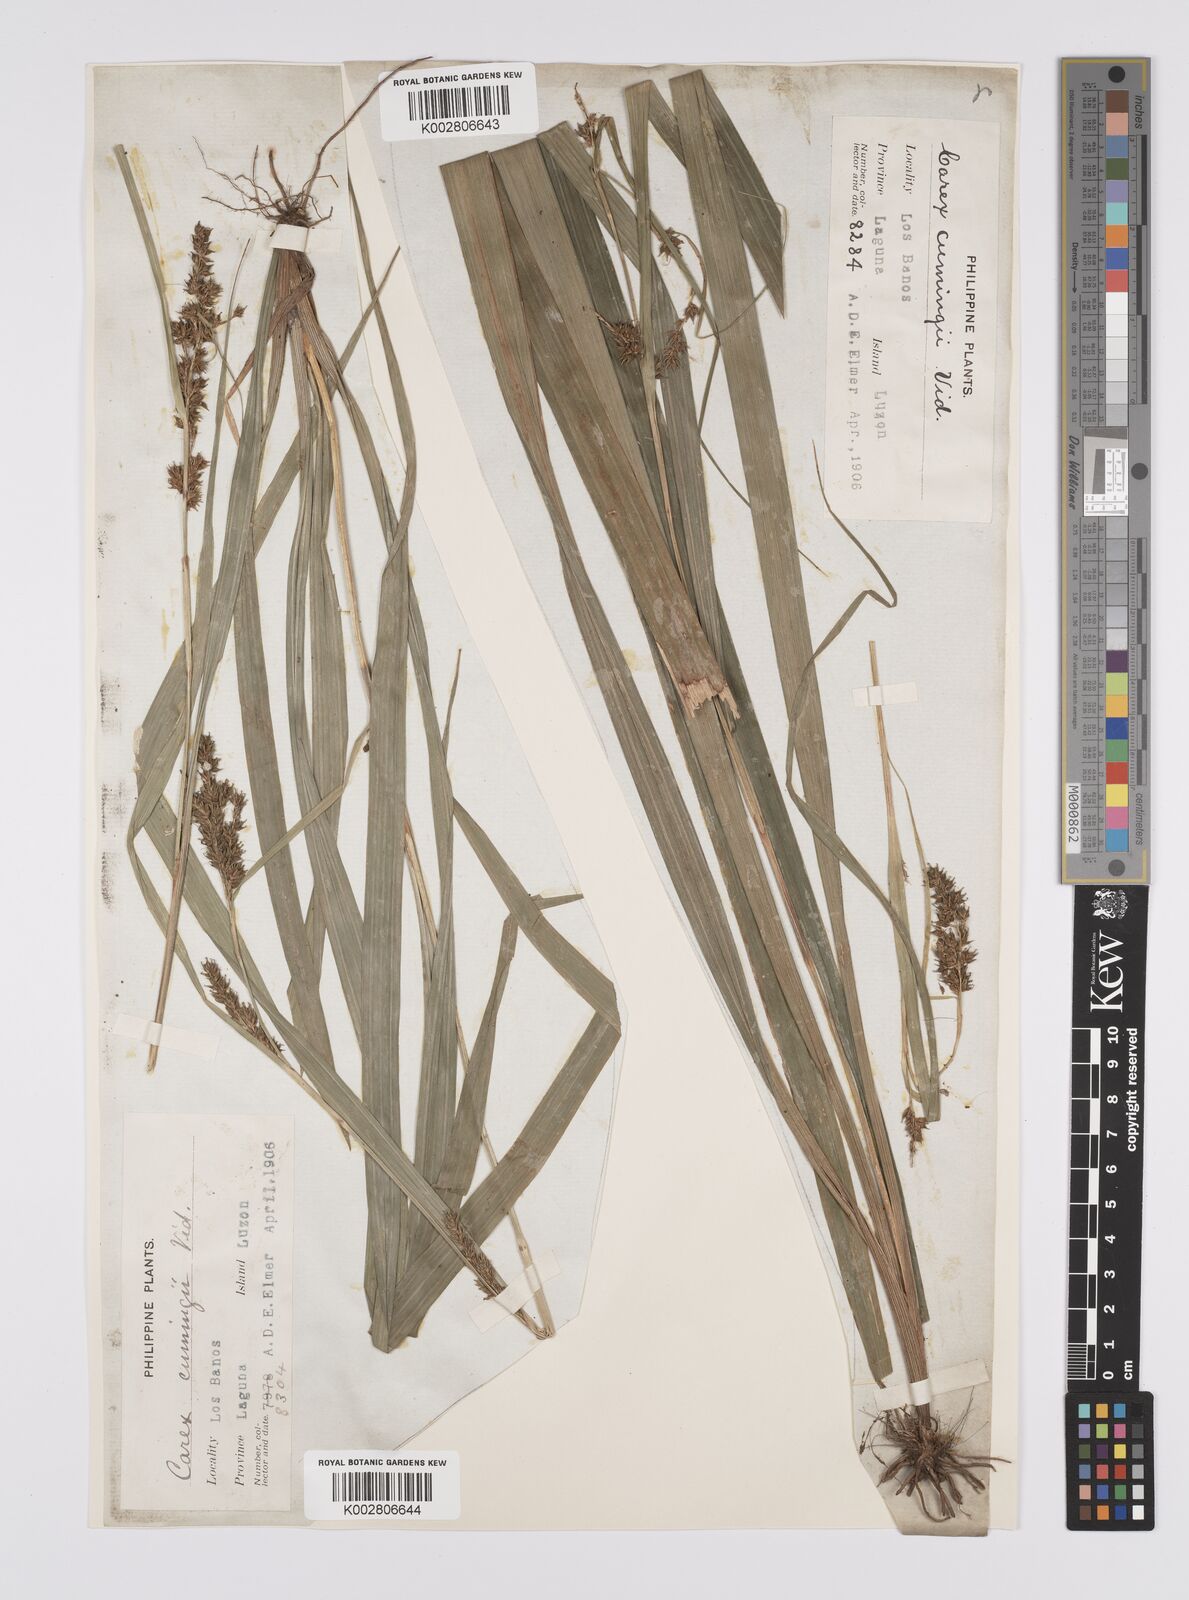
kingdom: Plantae
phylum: Tracheophyta
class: Liliopsida
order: Poales
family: Cyperaceae
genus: Carex
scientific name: Carex nodiflora
